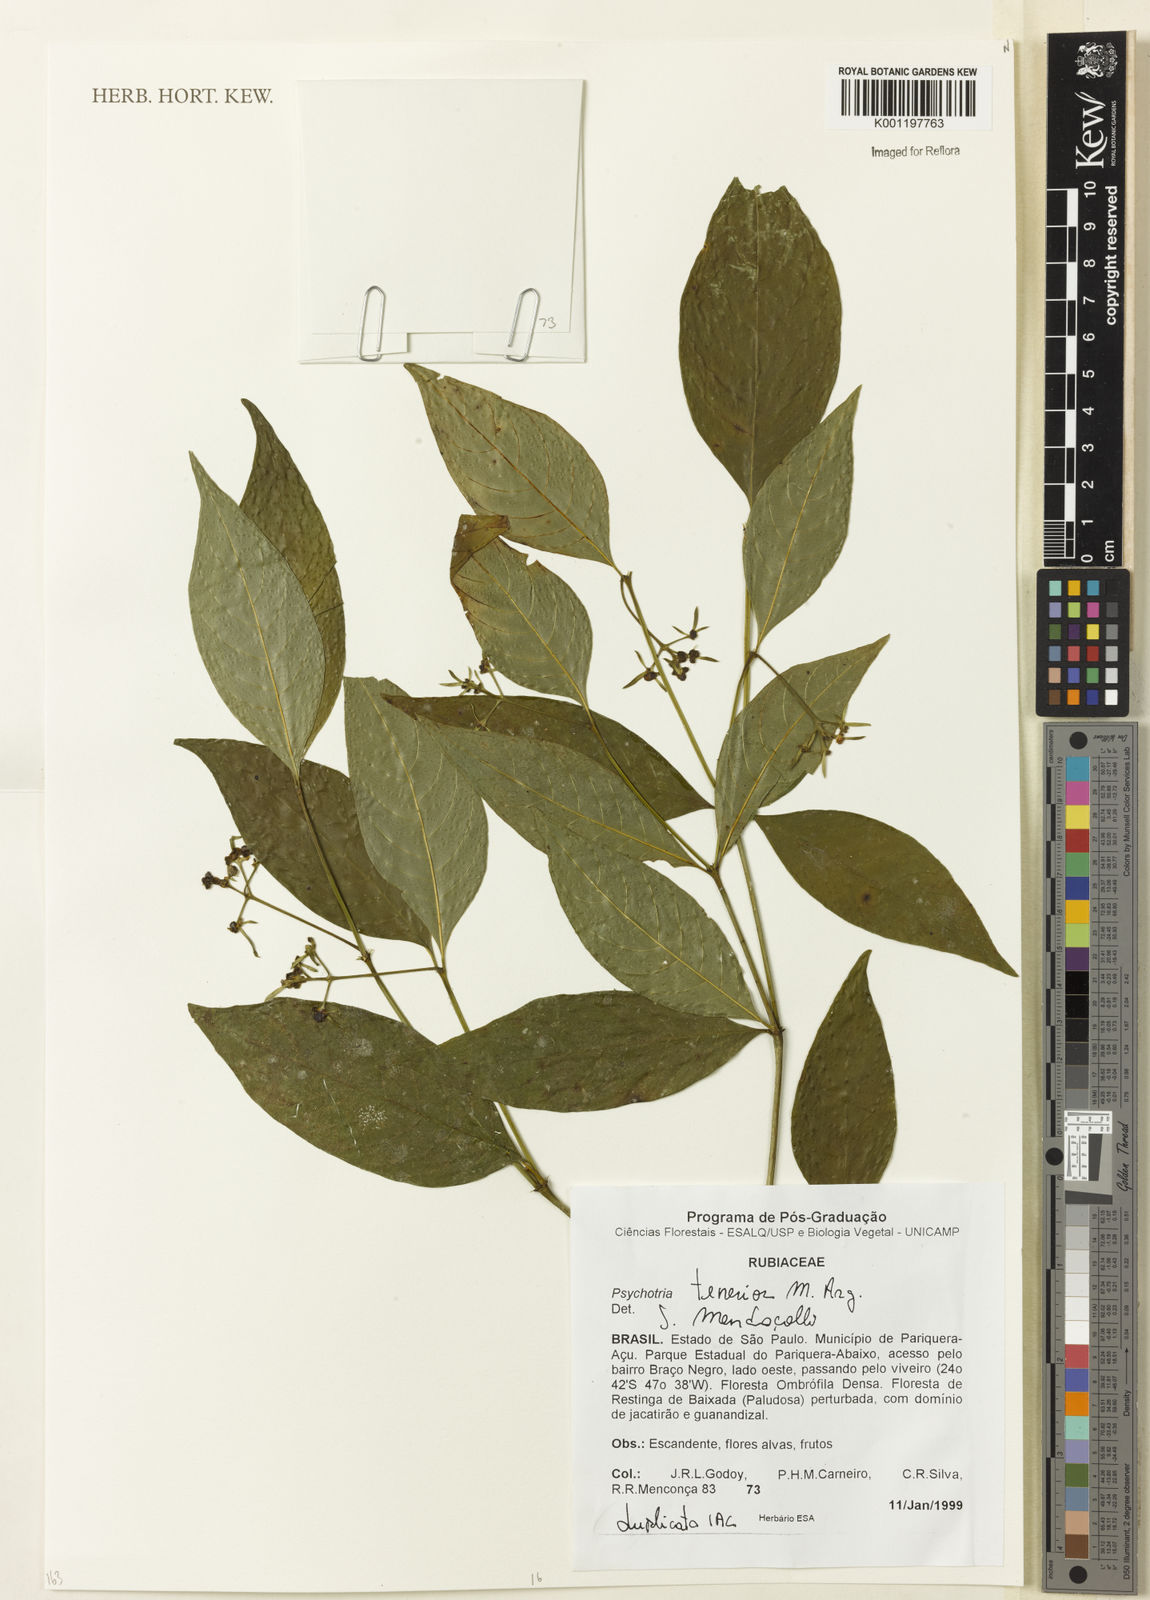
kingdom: Plantae
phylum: Tracheophyta
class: Magnoliopsida
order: Gentianales
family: Rubiaceae
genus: Psychotria
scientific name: Psychotria
